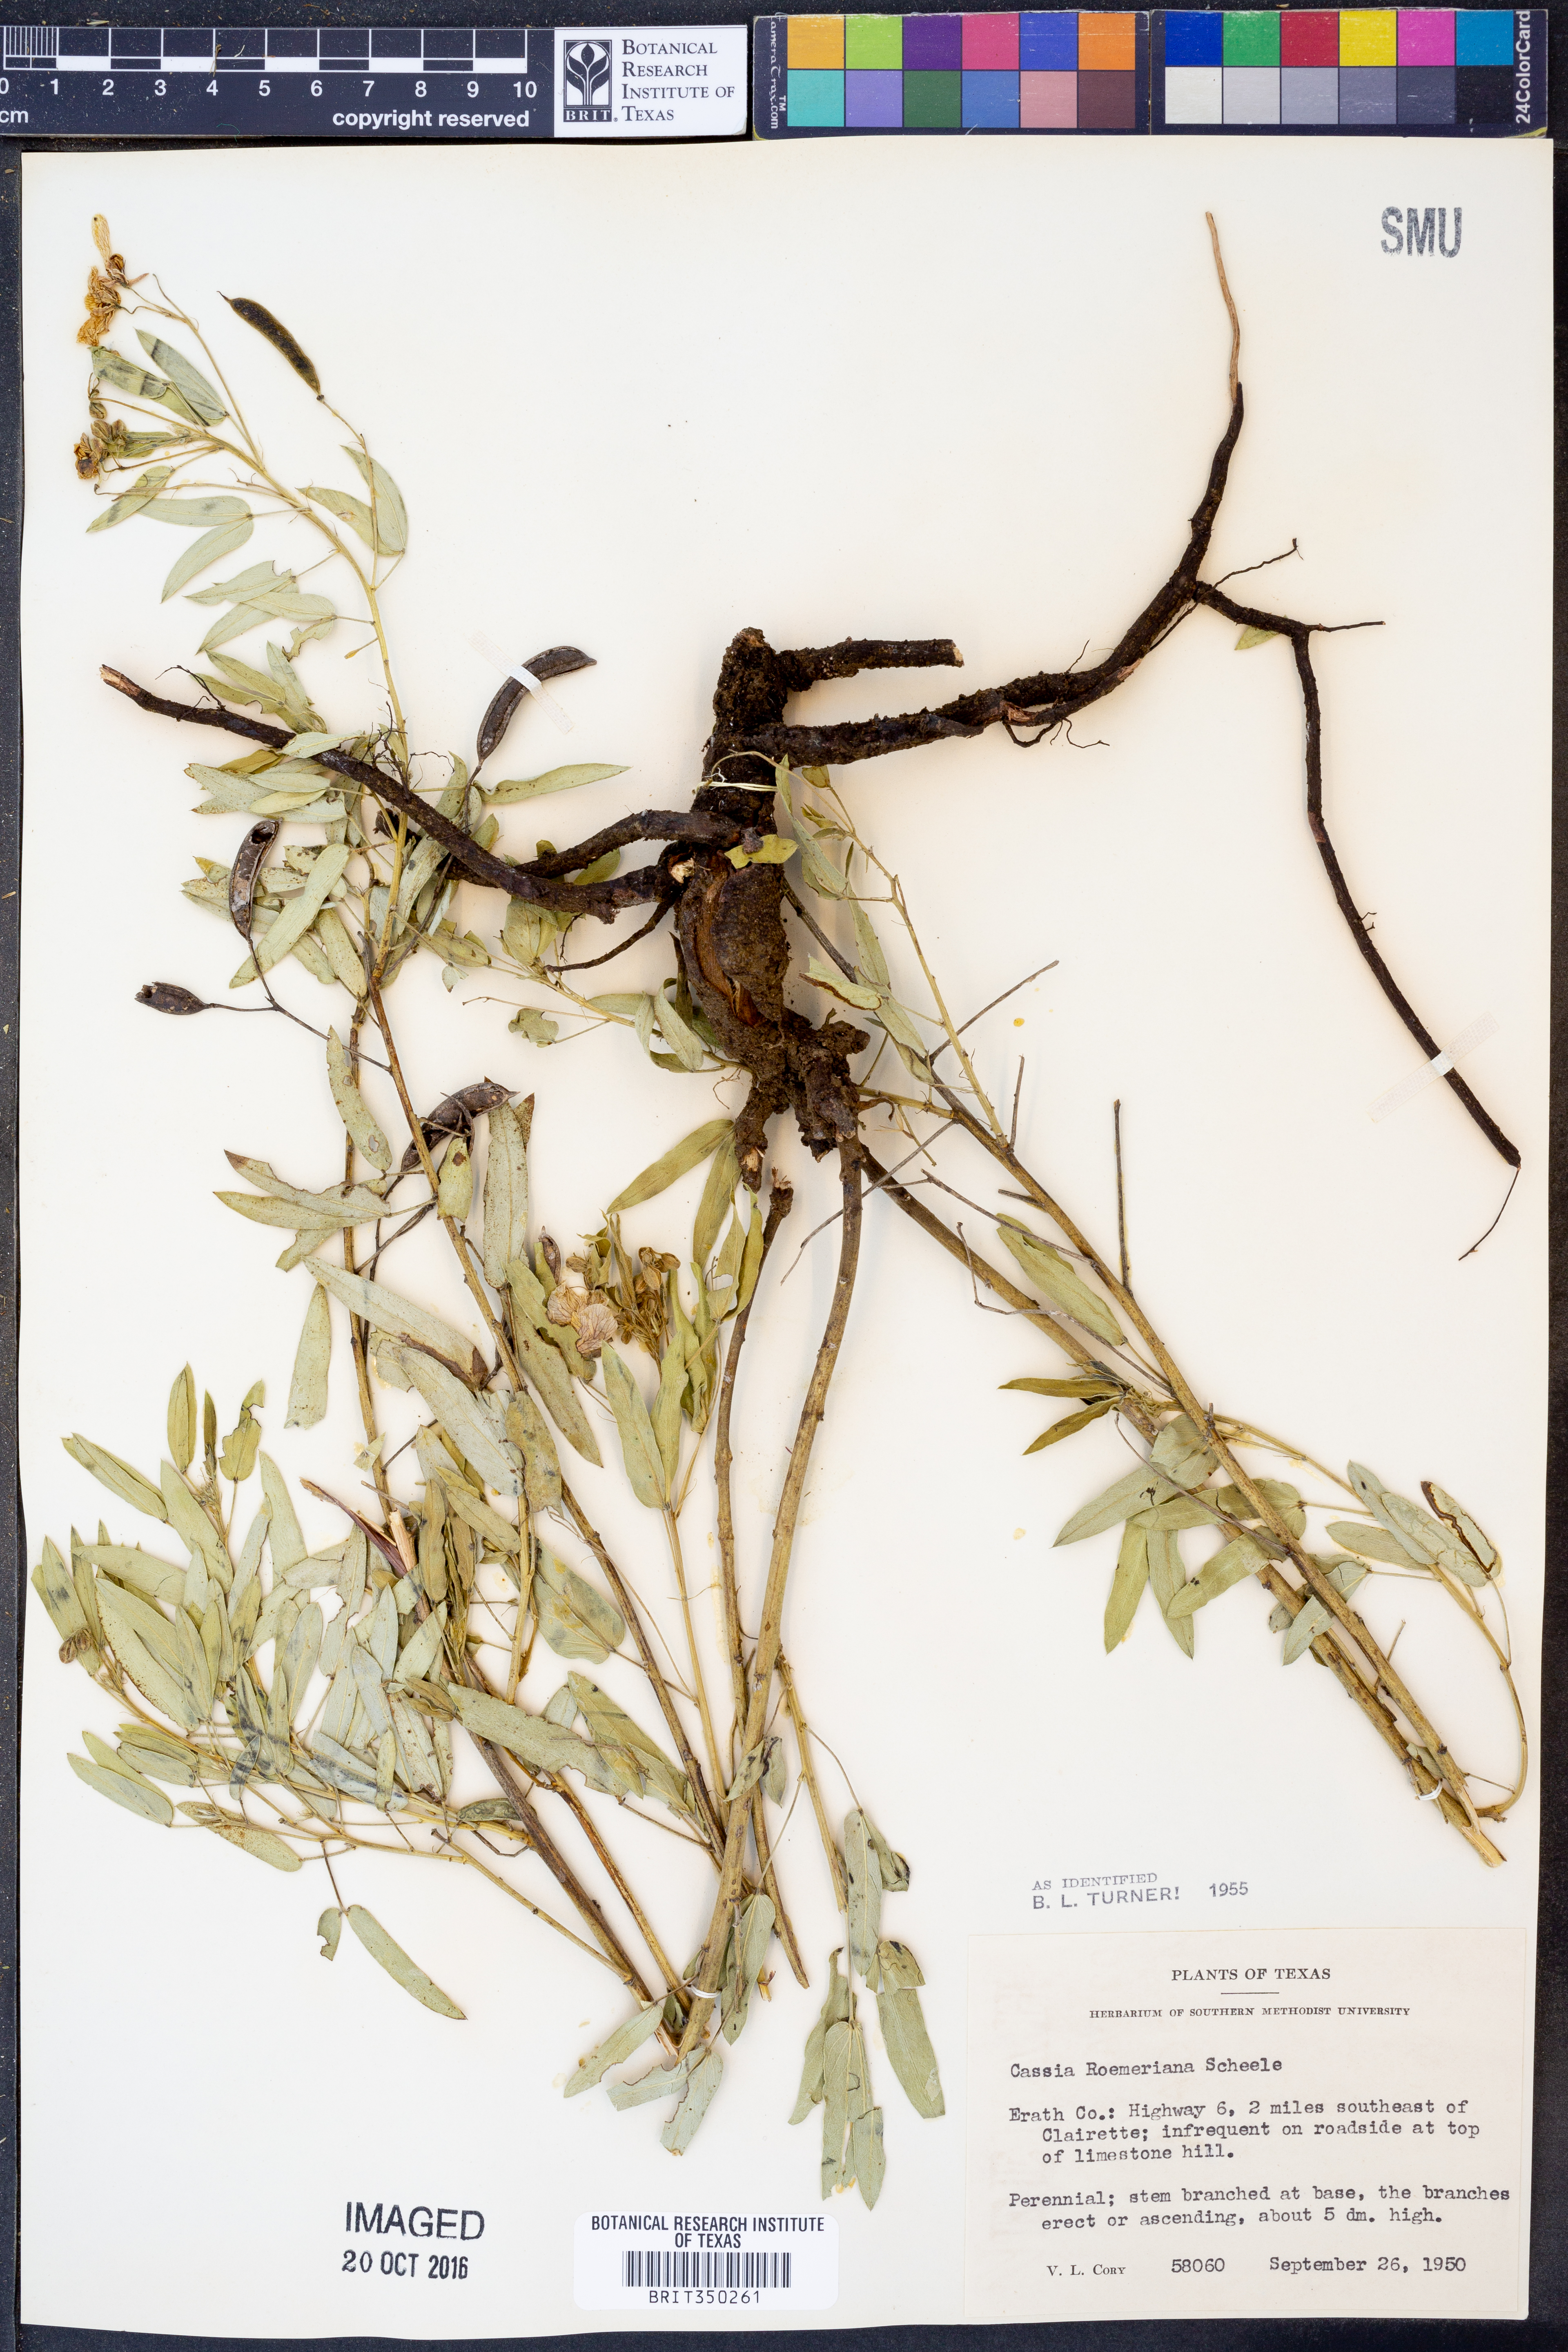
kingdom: Plantae
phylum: Tracheophyta
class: Magnoliopsida
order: Fabales
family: Fabaceae
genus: Senna
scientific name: Senna roemeriana
